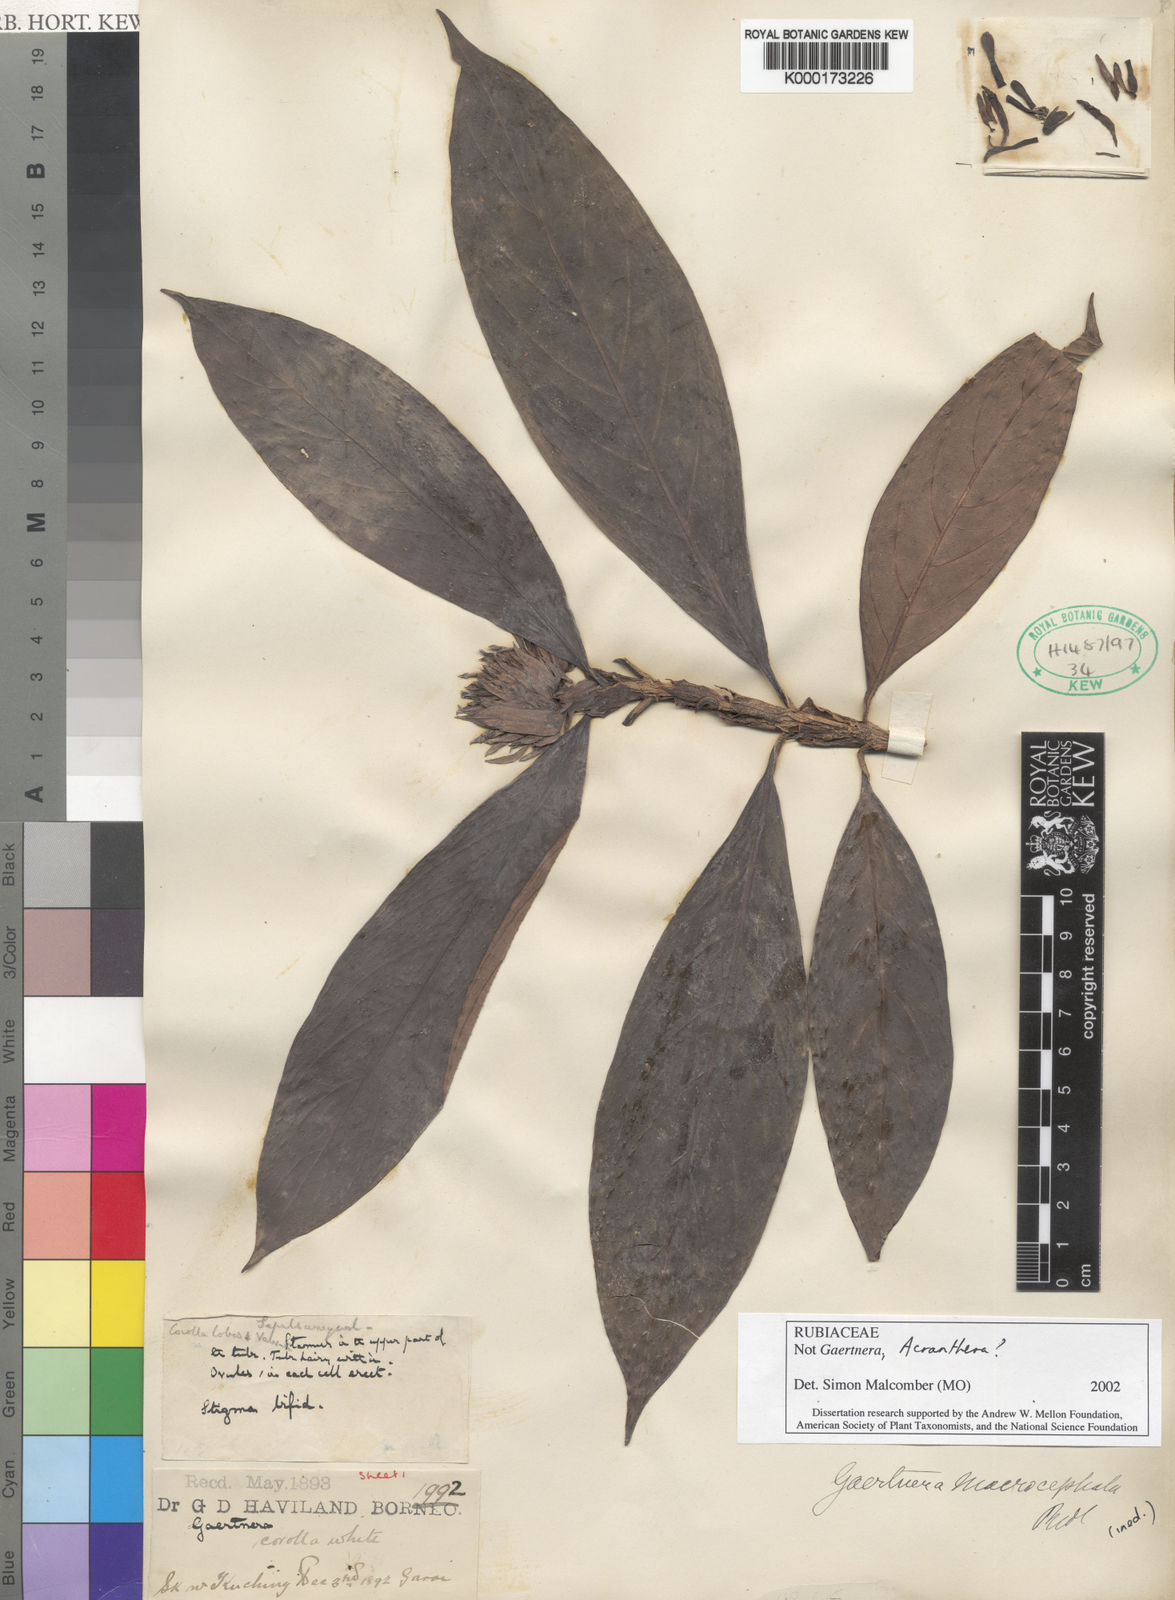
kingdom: Plantae
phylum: Tracheophyta
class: Magnoliopsida
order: Gentianales
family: Rubiaceae
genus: Gaertnera
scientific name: Gaertnera
